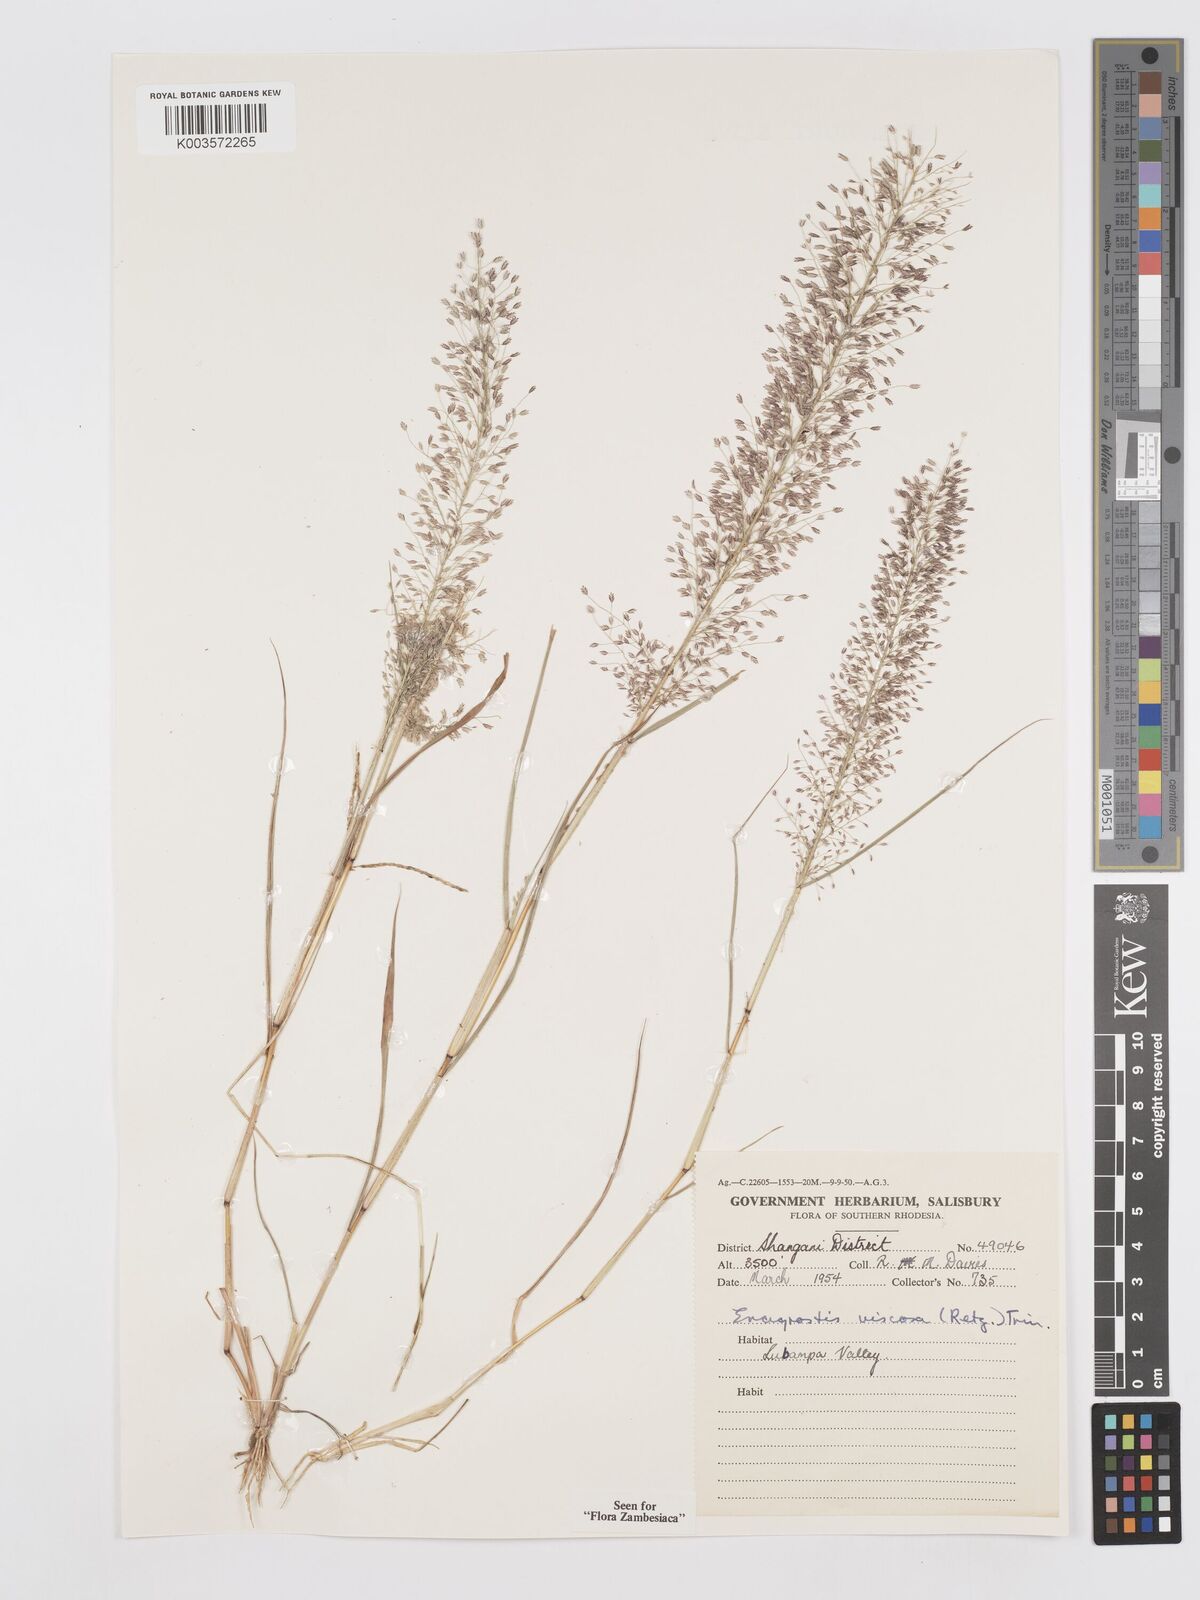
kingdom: Plantae
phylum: Tracheophyta
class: Liliopsida
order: Poales
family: Poaceae
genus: Eragrostis
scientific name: Eragrostis
